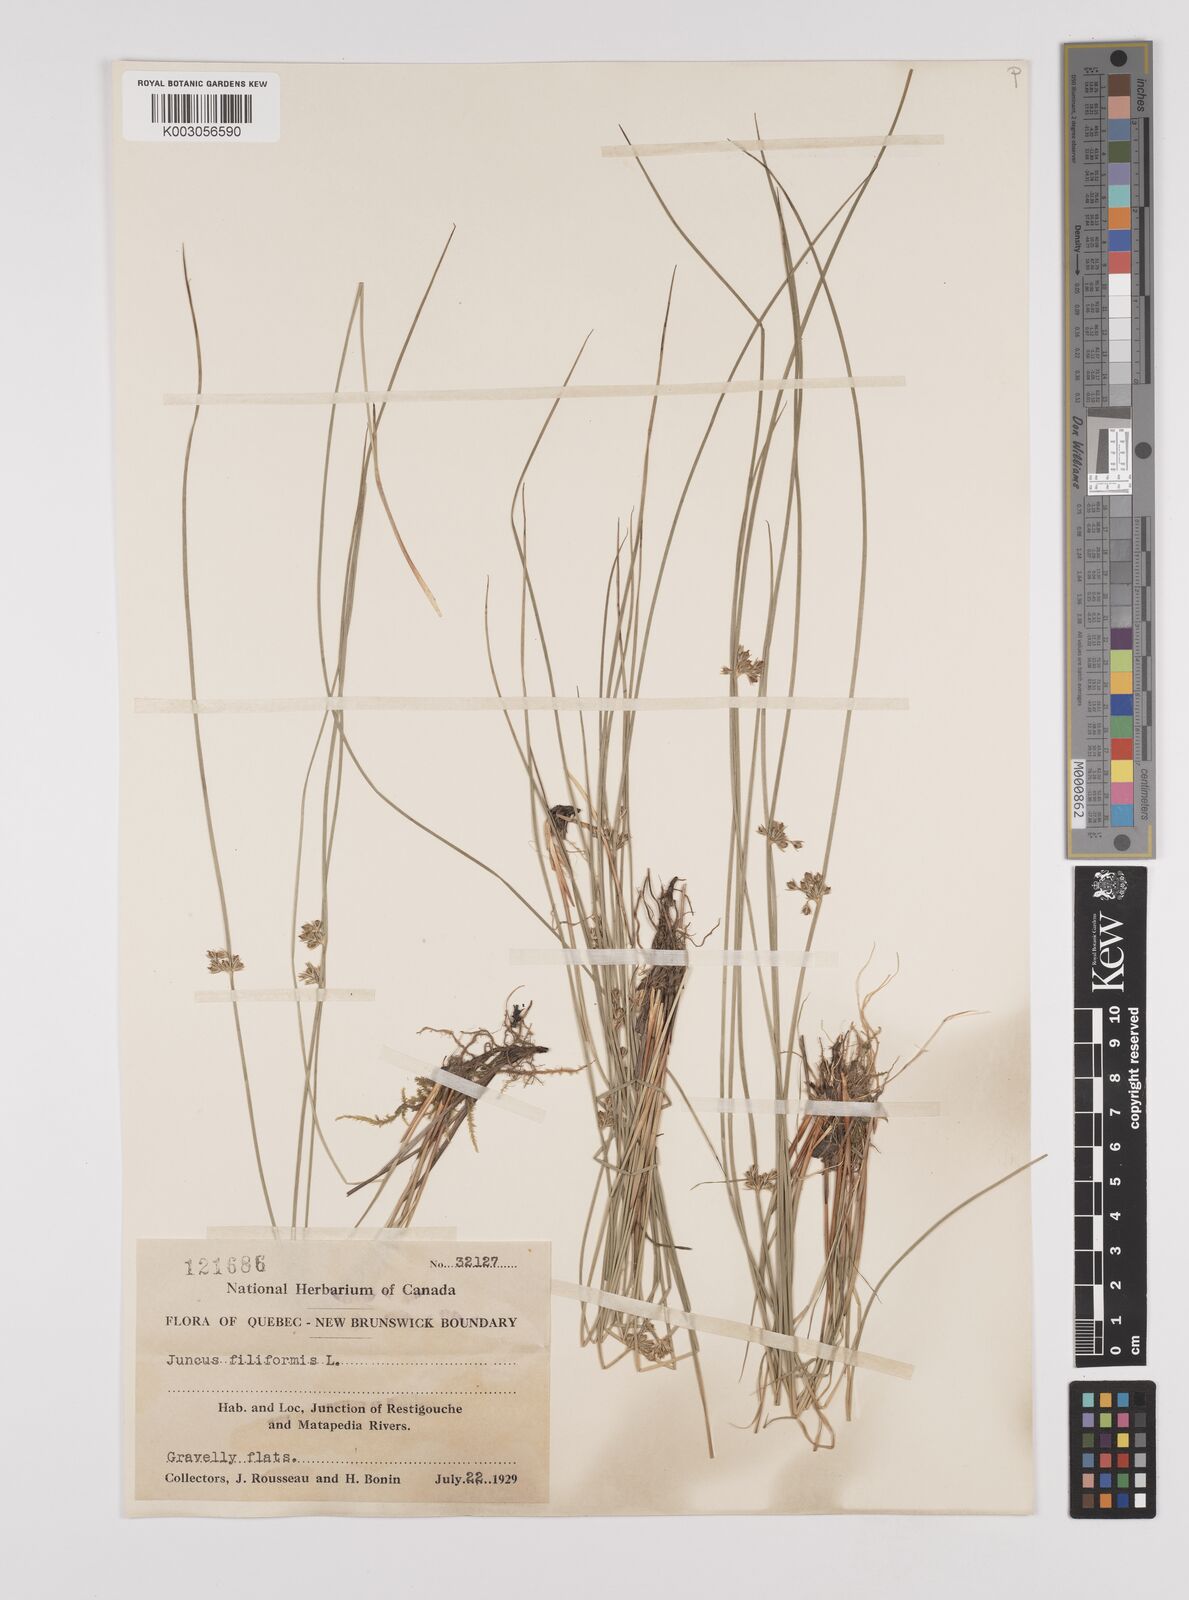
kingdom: Plantae
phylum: Tracheophyta
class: Liliopsida
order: Poales
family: Juncaceae
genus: Juncus
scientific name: Juncus filiformis
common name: Thread rush
